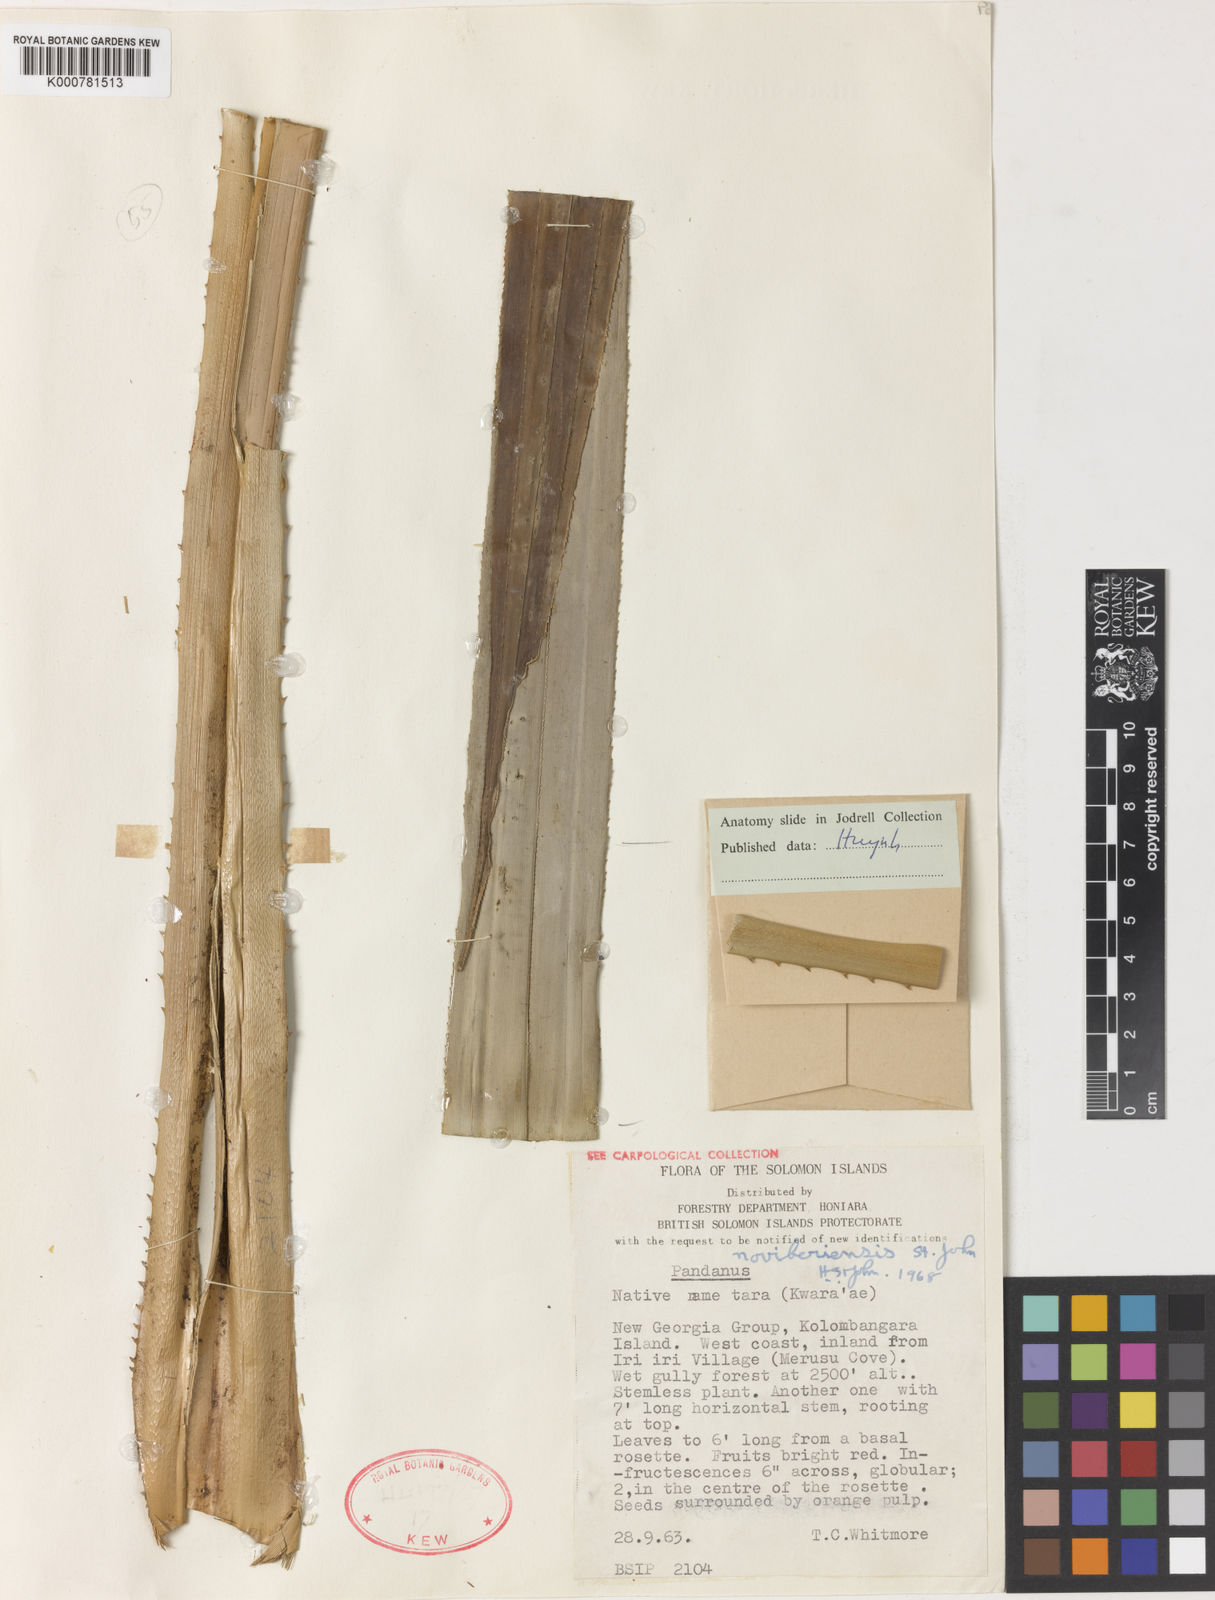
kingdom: Plantae
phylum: Tracheophyta
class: Liliopsida
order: Pandanales
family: Pandanaceae
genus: Pandanus
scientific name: Pandanus
